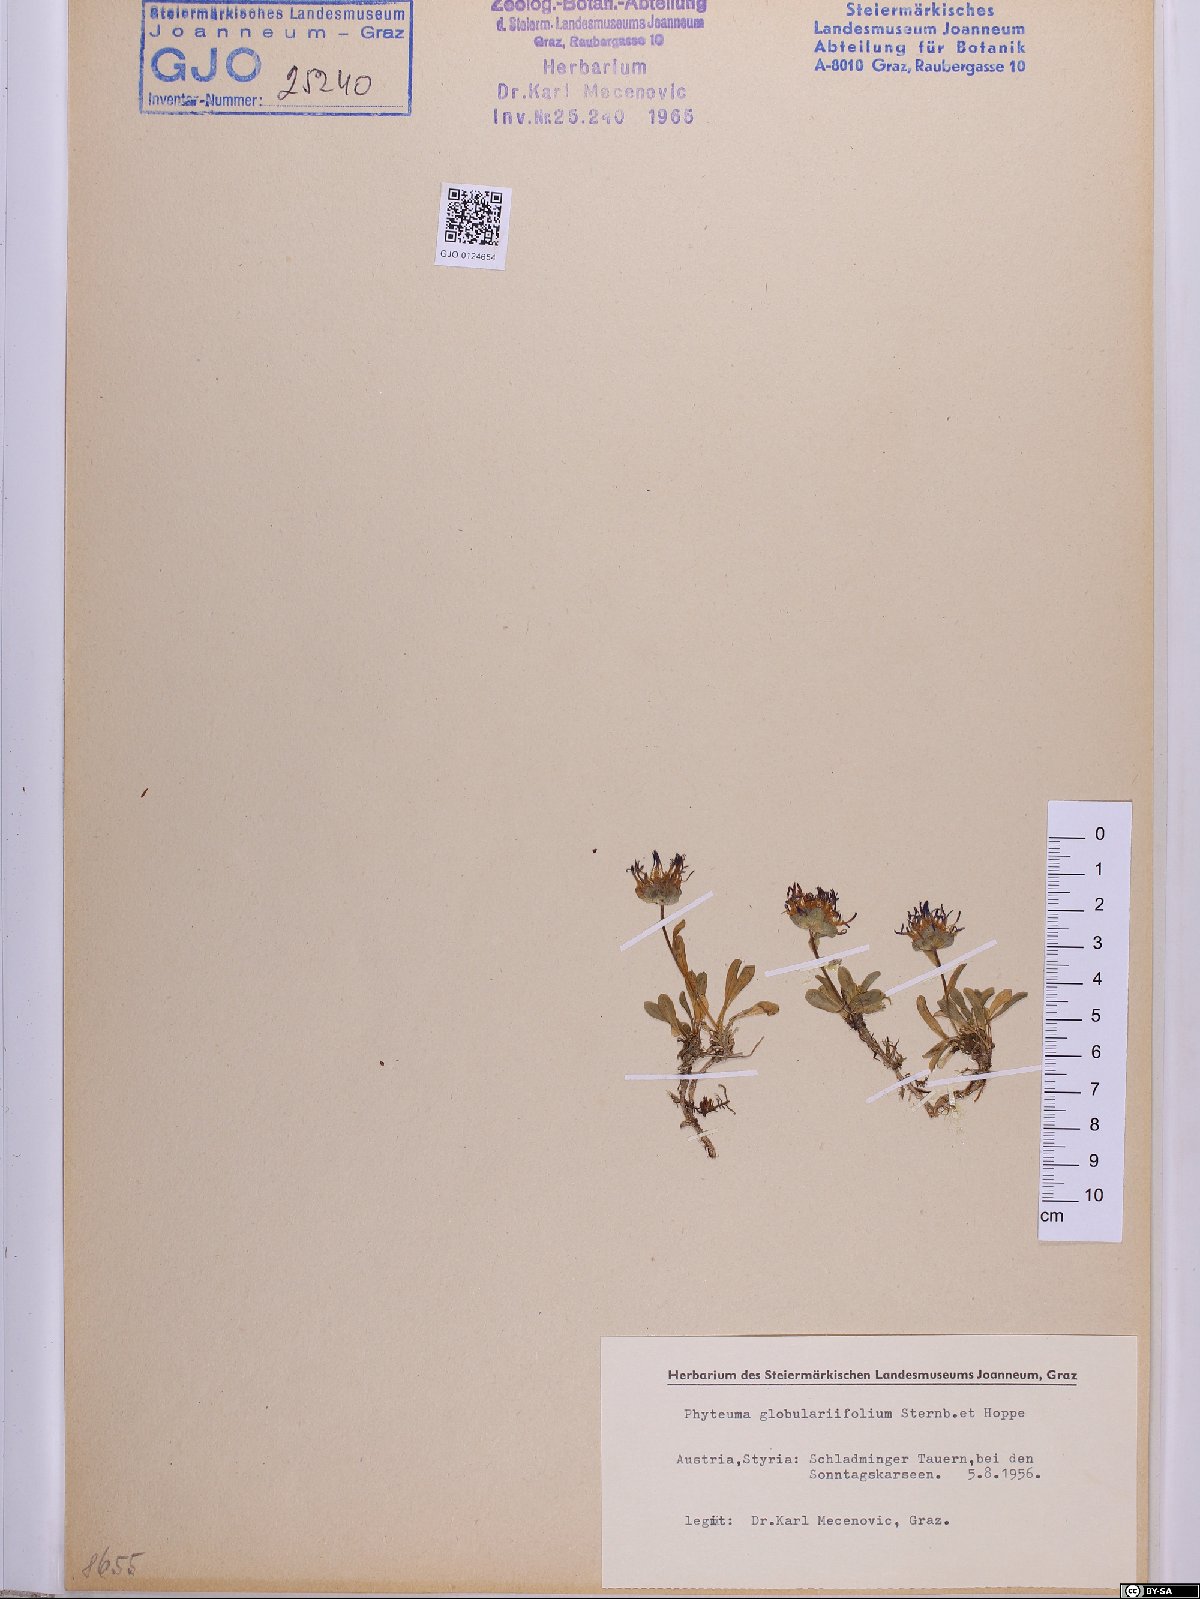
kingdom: Plantae
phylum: Tracheophyta
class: Magnoliopsida
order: Asterales
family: Campanulaceae
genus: Phyteuma
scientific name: Phyteuma globulariifolium
